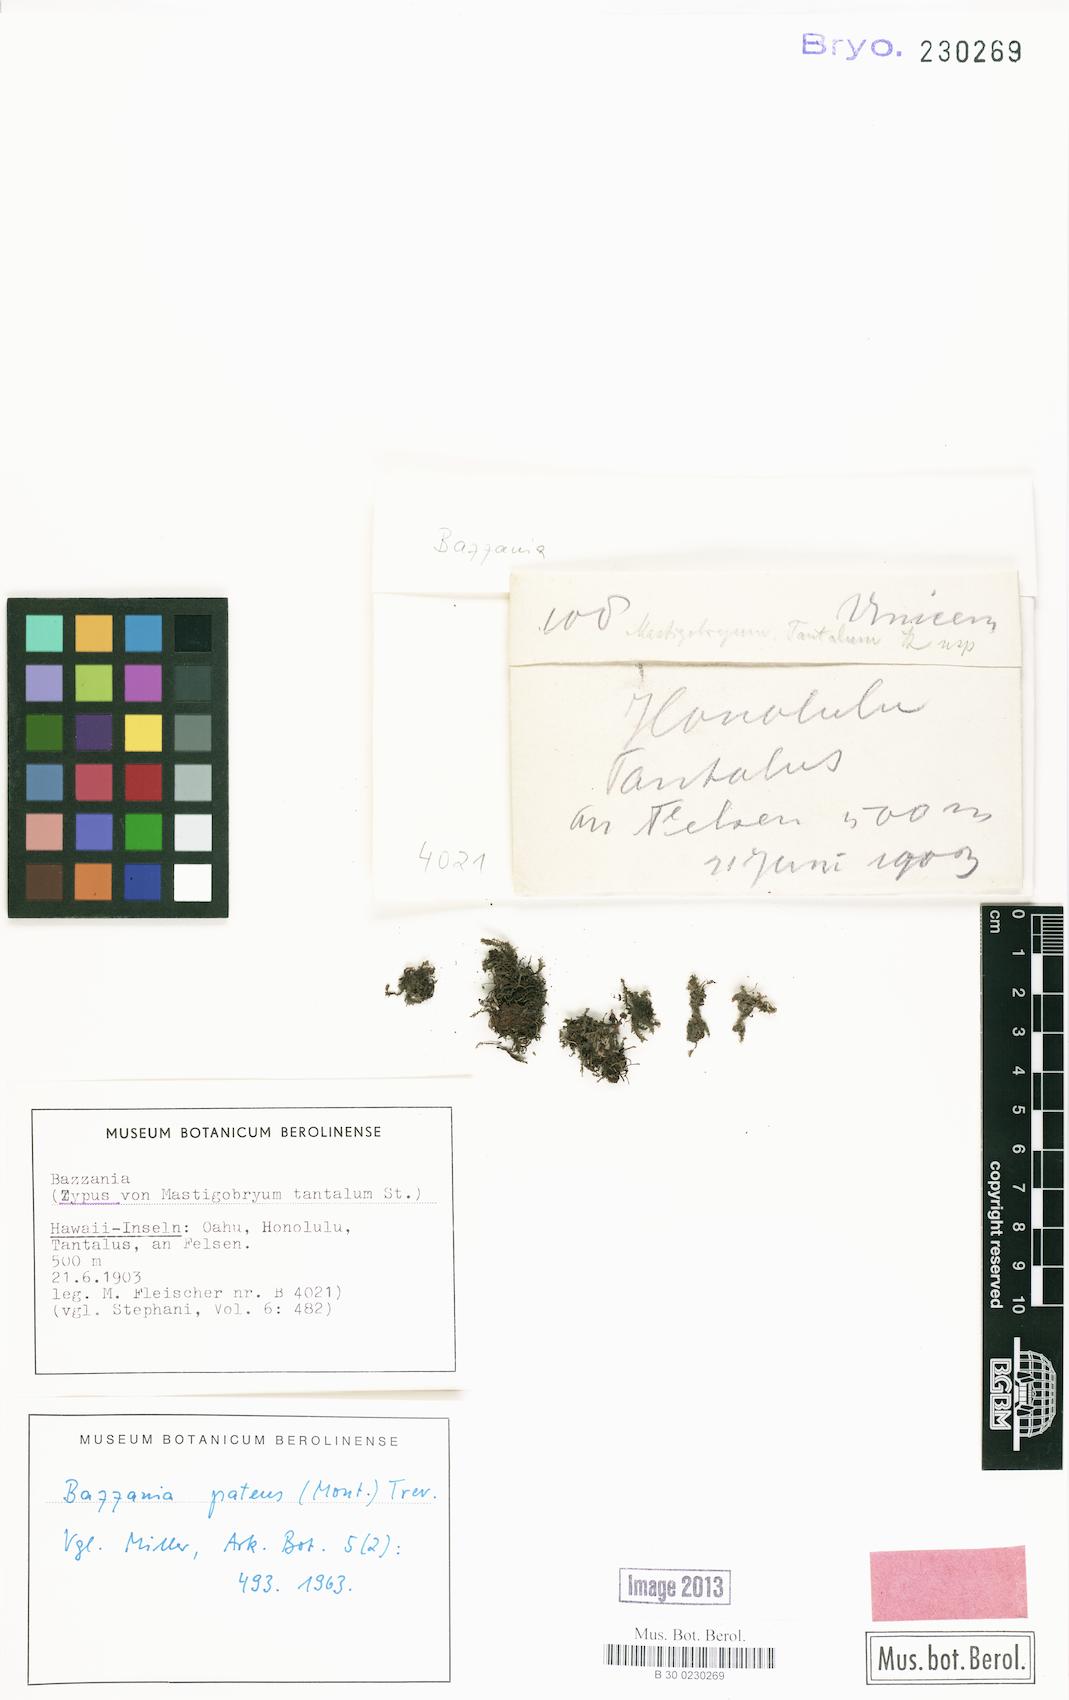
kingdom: Plantae
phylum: Marchantiophyta
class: Jungermanniopsida
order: Jungermanniales
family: Lepidoziaceae
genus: Bazzania
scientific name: Bazzania patens
